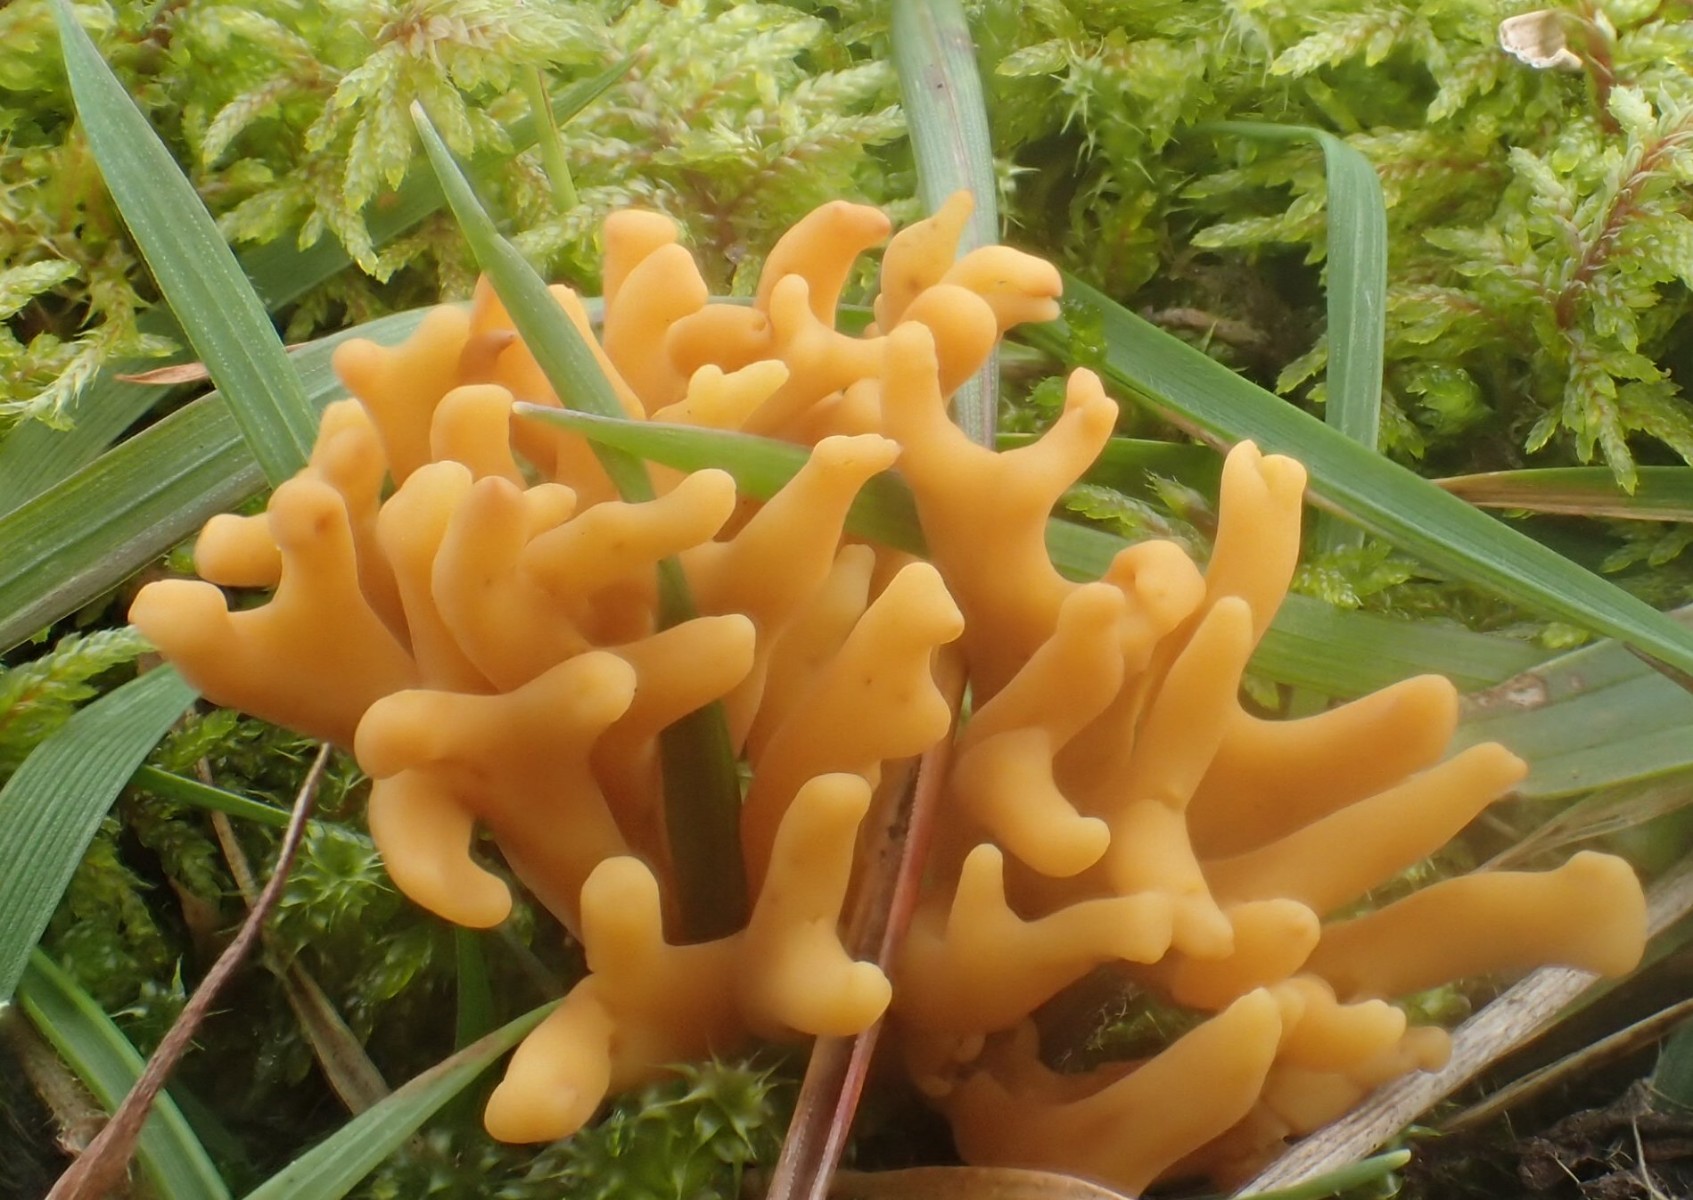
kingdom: Fungi
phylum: Basidiomycota
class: Agaricomycetes
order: Agaricales
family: Clavariaceae
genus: Clavulinopsis
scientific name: Clavulinopsis corniculata
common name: eng-køllesvamp
